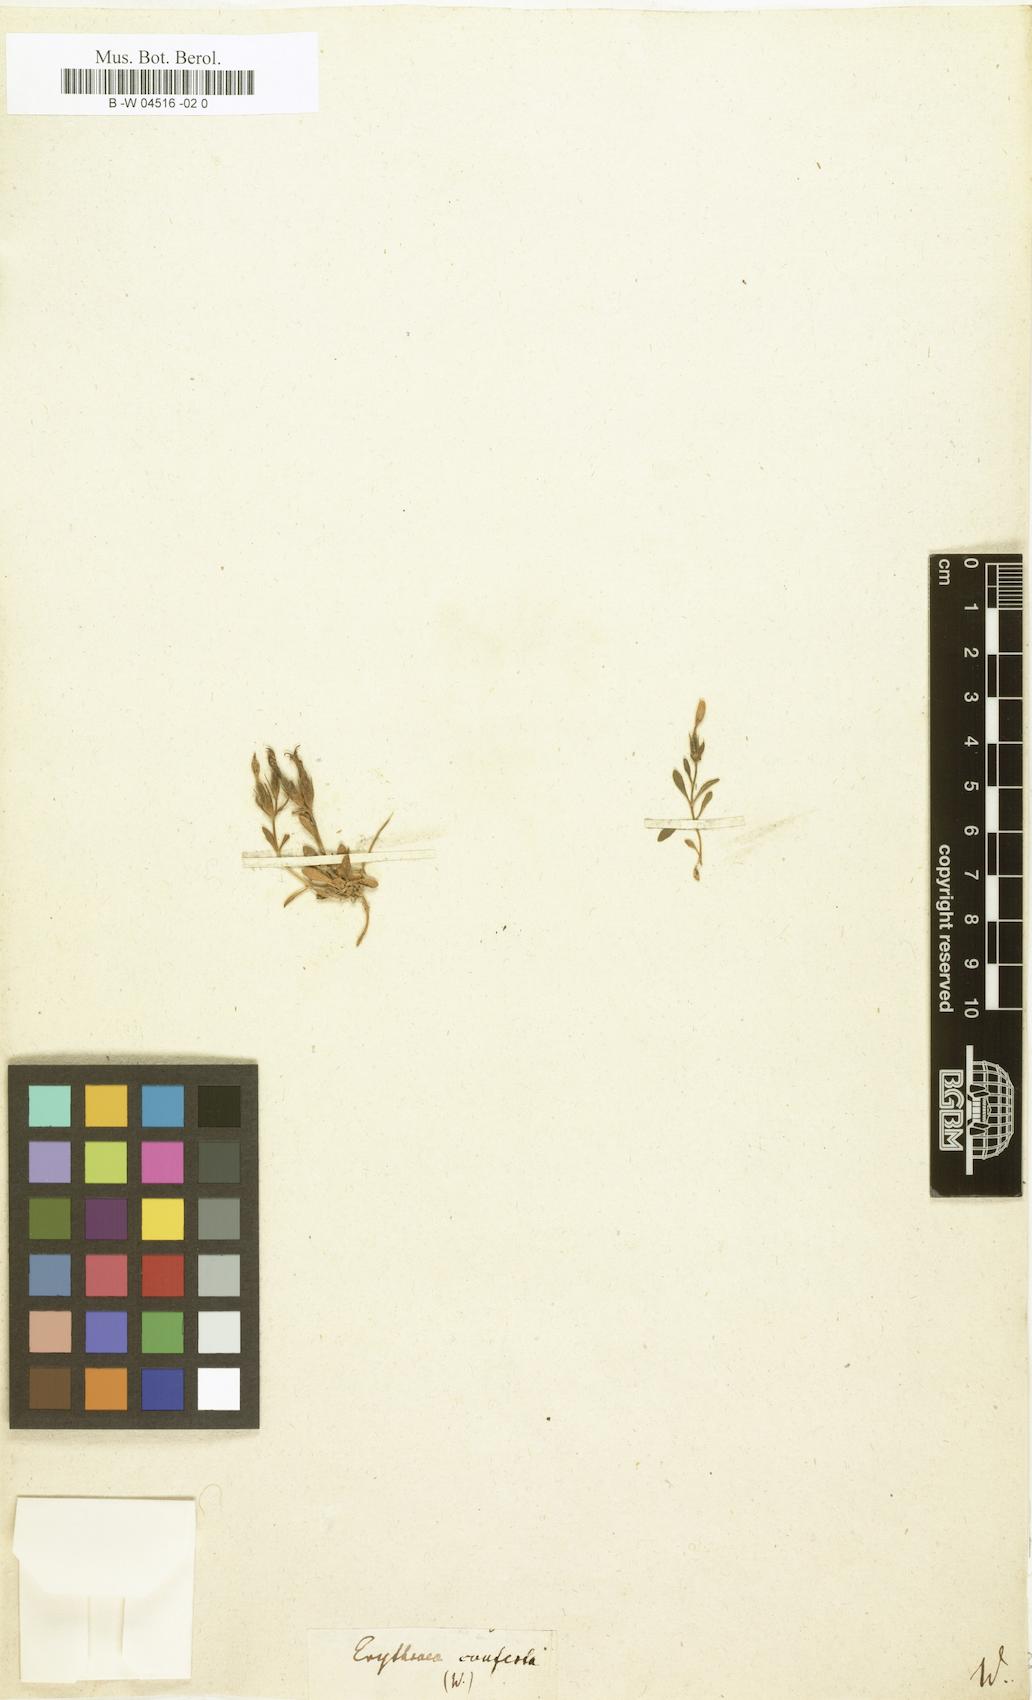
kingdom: Plantae
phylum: Tracheophyta
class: Magnoliopsida
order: Gentianales
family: Gentianaceae
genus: Centaurium
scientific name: Centaurium chloodes
